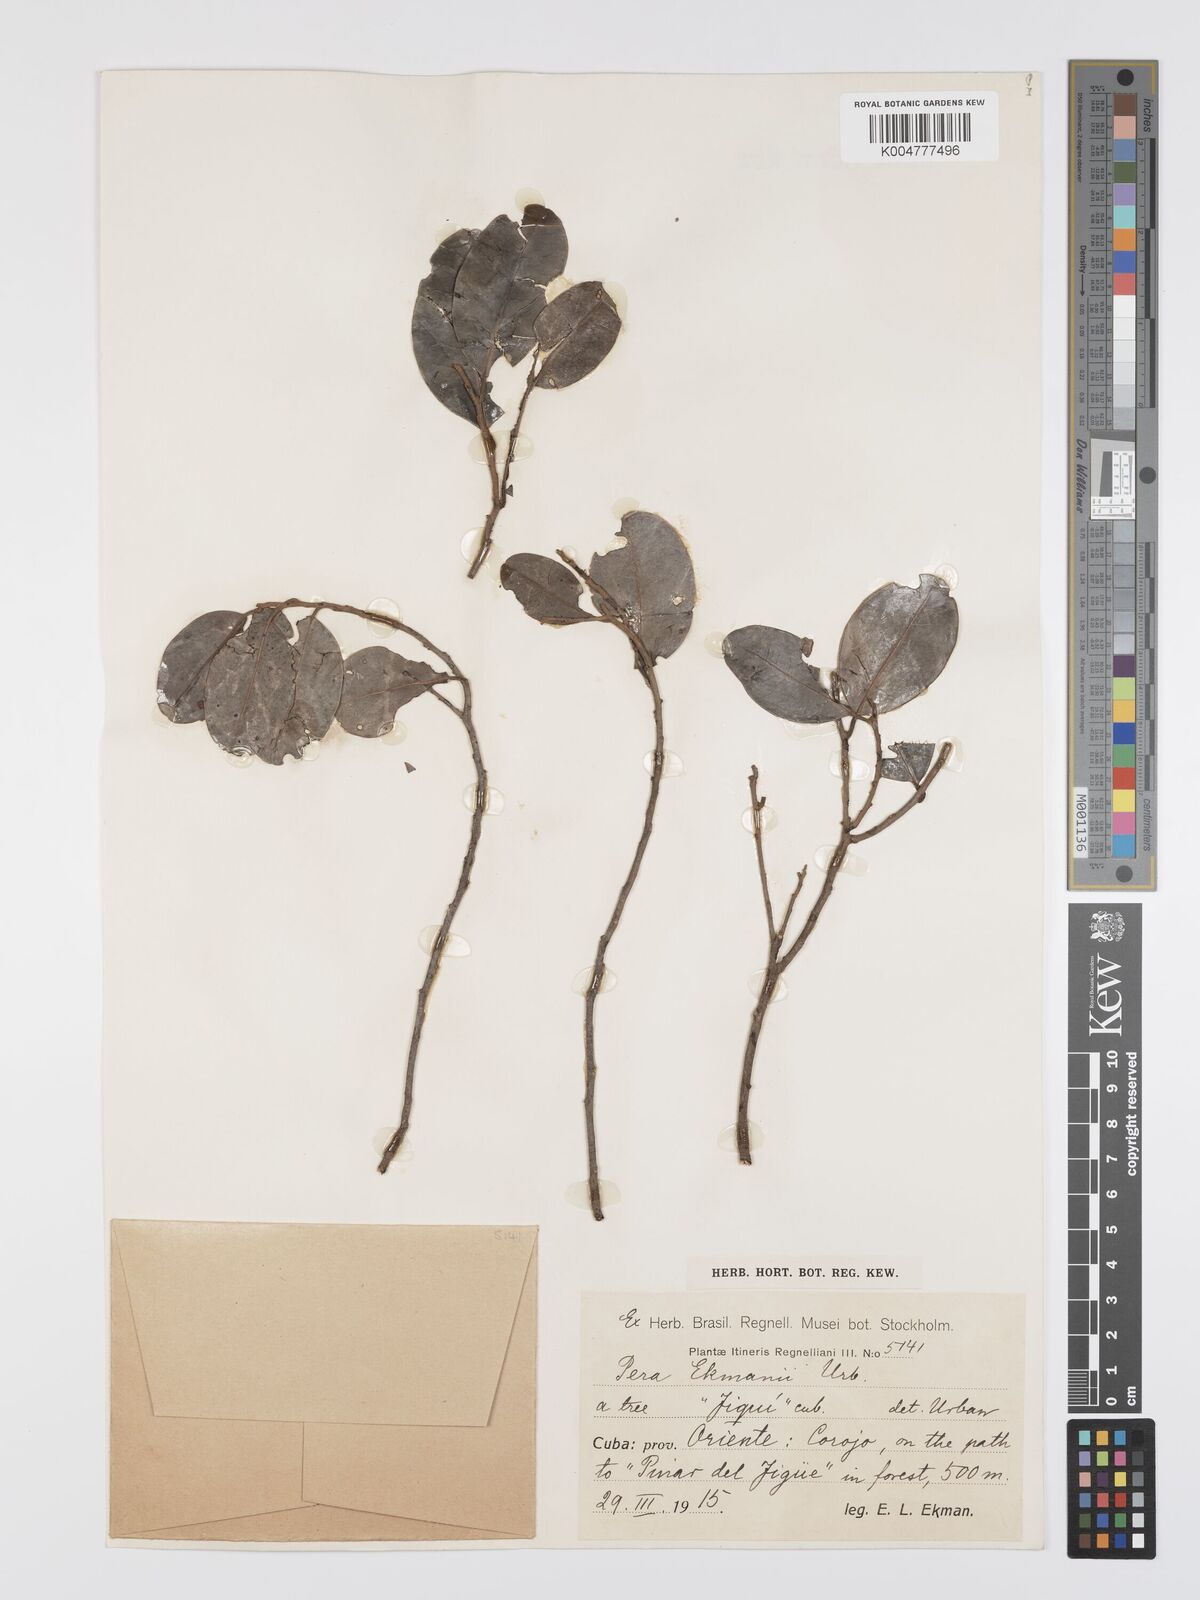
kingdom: Plantae
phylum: Tracheophyta
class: Magnoliopsida
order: Malpighiales
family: Peraceae
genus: Pera
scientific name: Pera ekmanii
